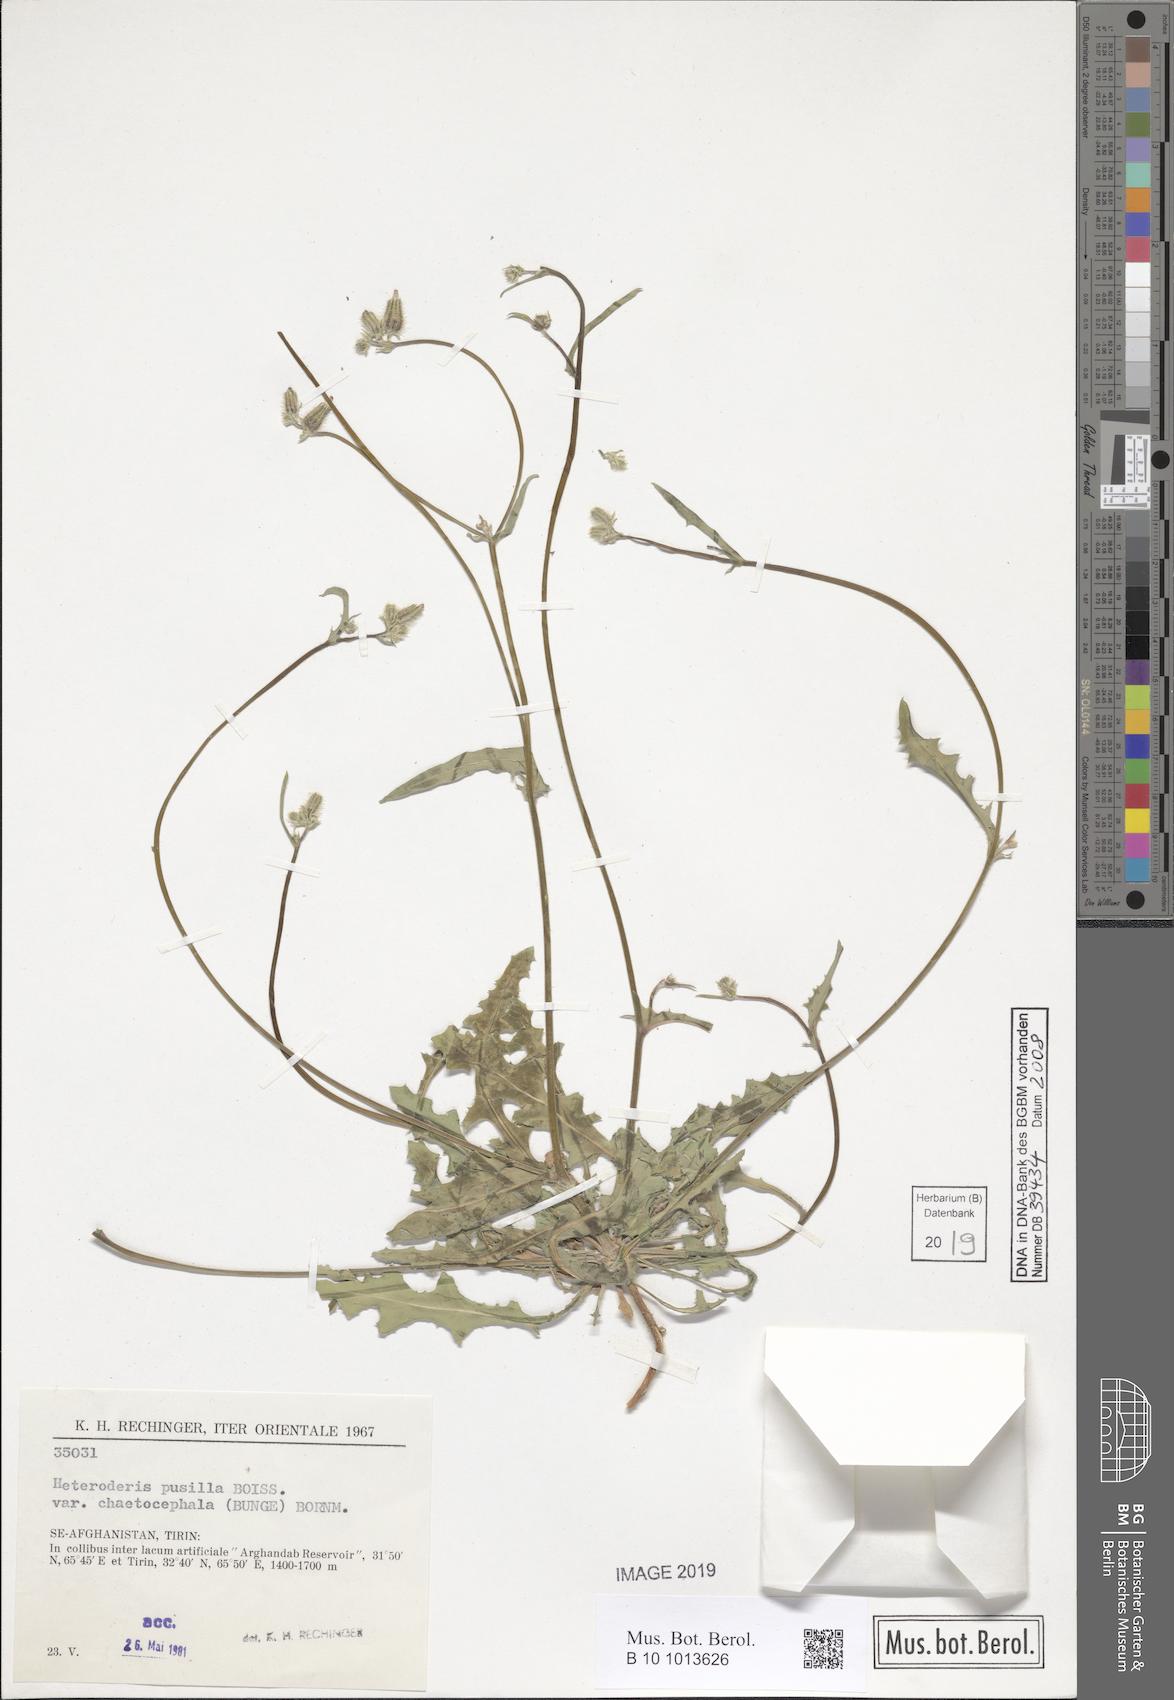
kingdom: Plantae
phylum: Tracheophyta
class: Magnoliopsida
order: Asterales
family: Asteraceae
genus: Heteroderis
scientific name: Heteroderis pusilla
